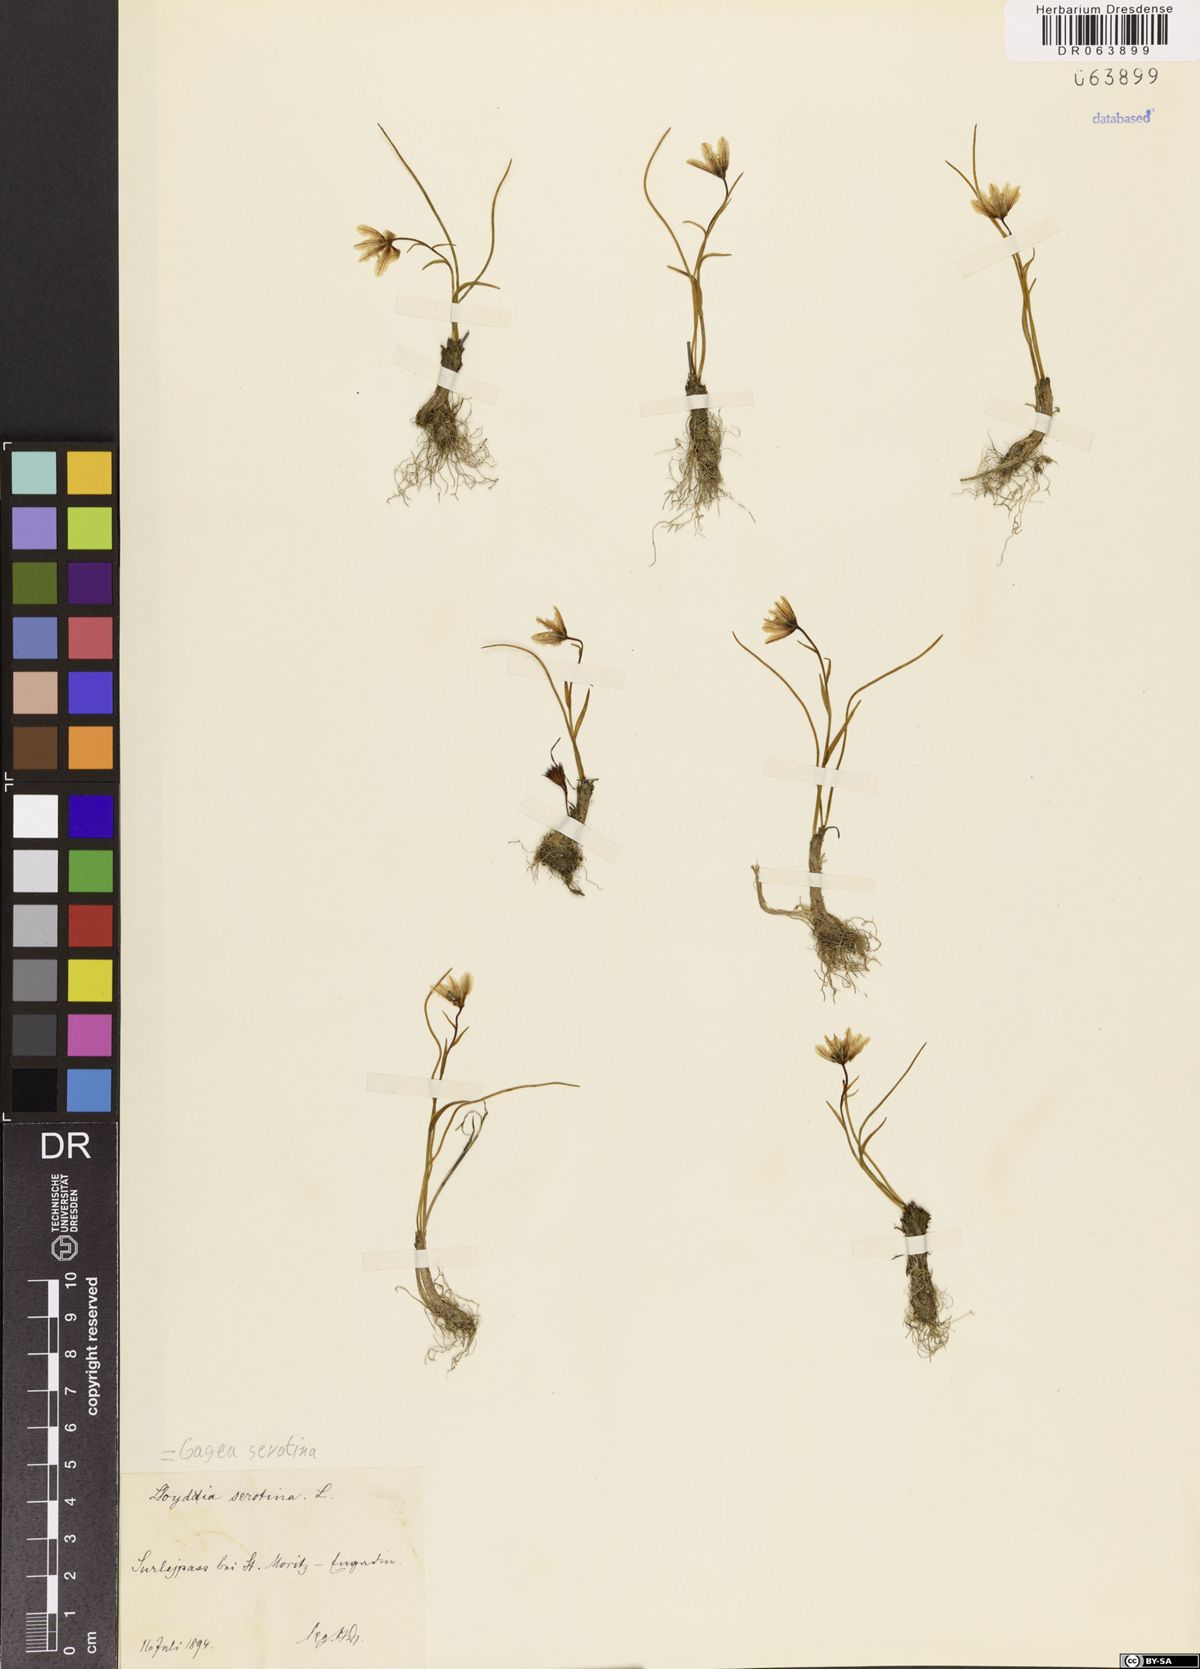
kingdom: Plantae
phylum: Tracheophyta
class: Liliopsida
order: Liliales
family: Liliaceae
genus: Gagea
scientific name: Gagea serotina
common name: Snowdon lily
